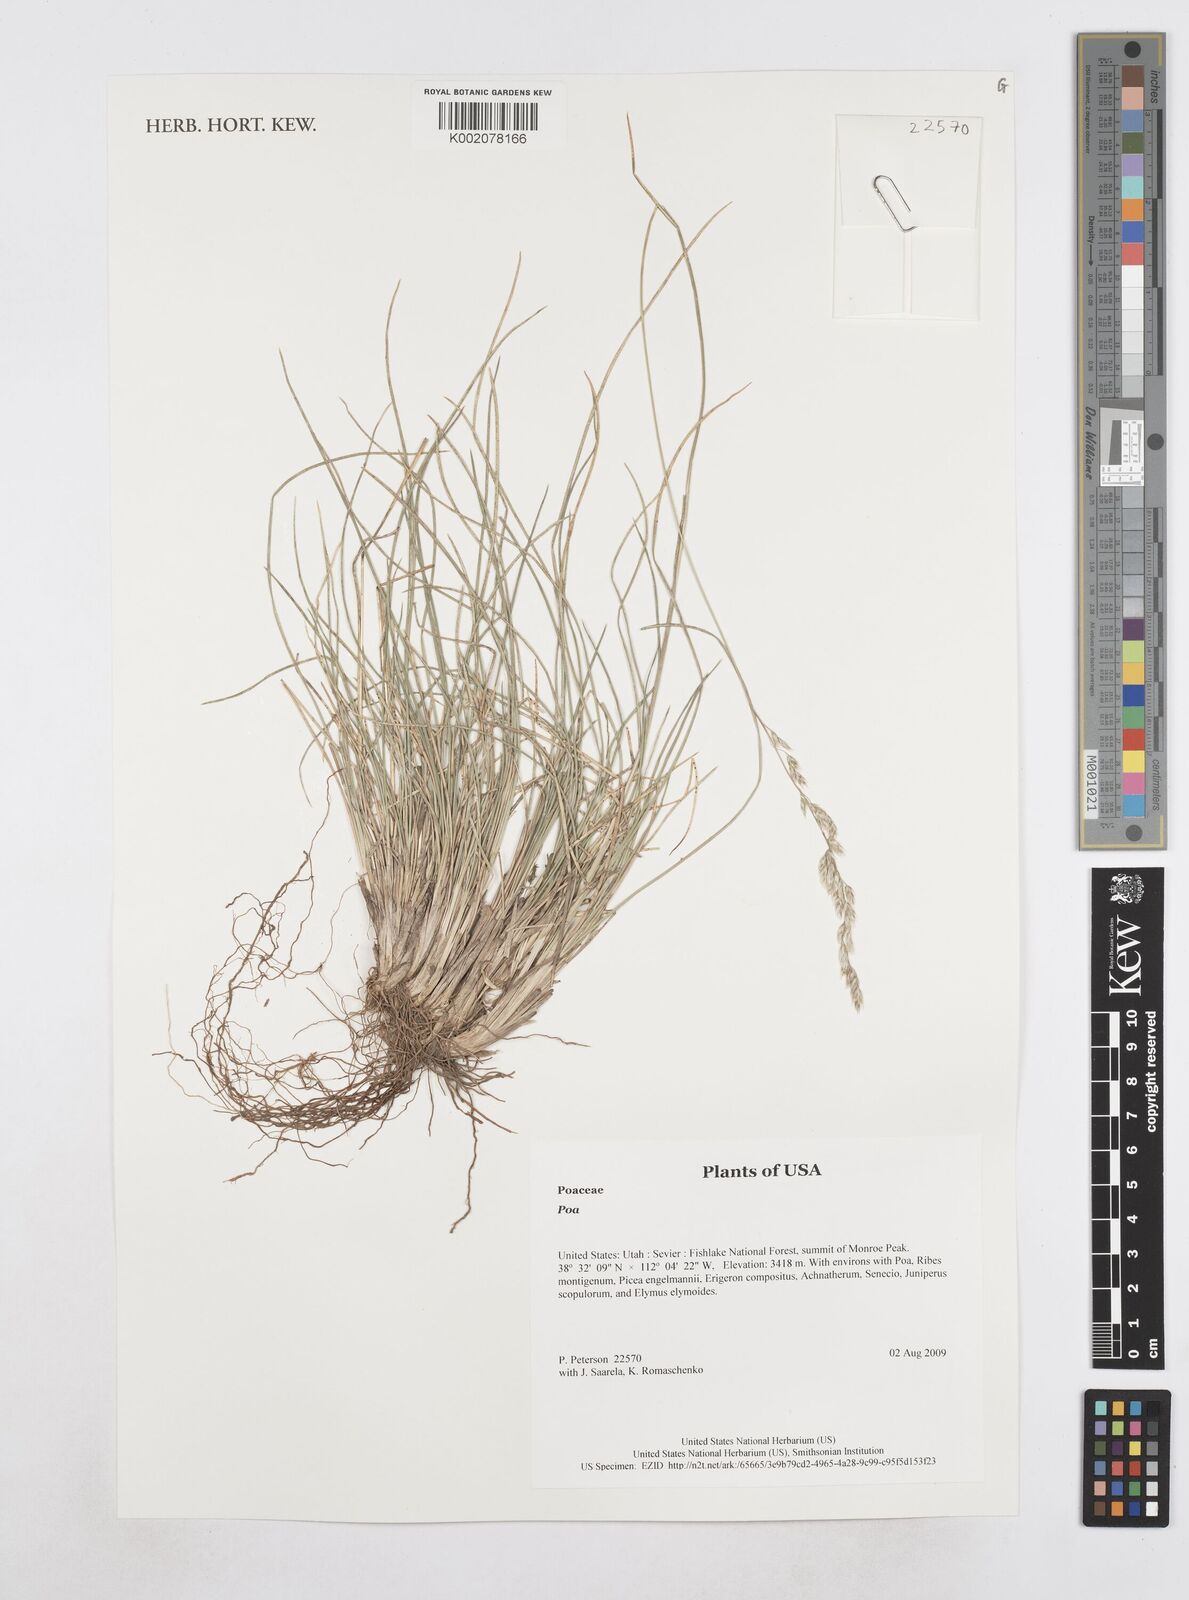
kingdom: Plantae
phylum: Tracheophyta
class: Liliopsida
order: Poales
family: Poaceae
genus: Poa
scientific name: Poa
